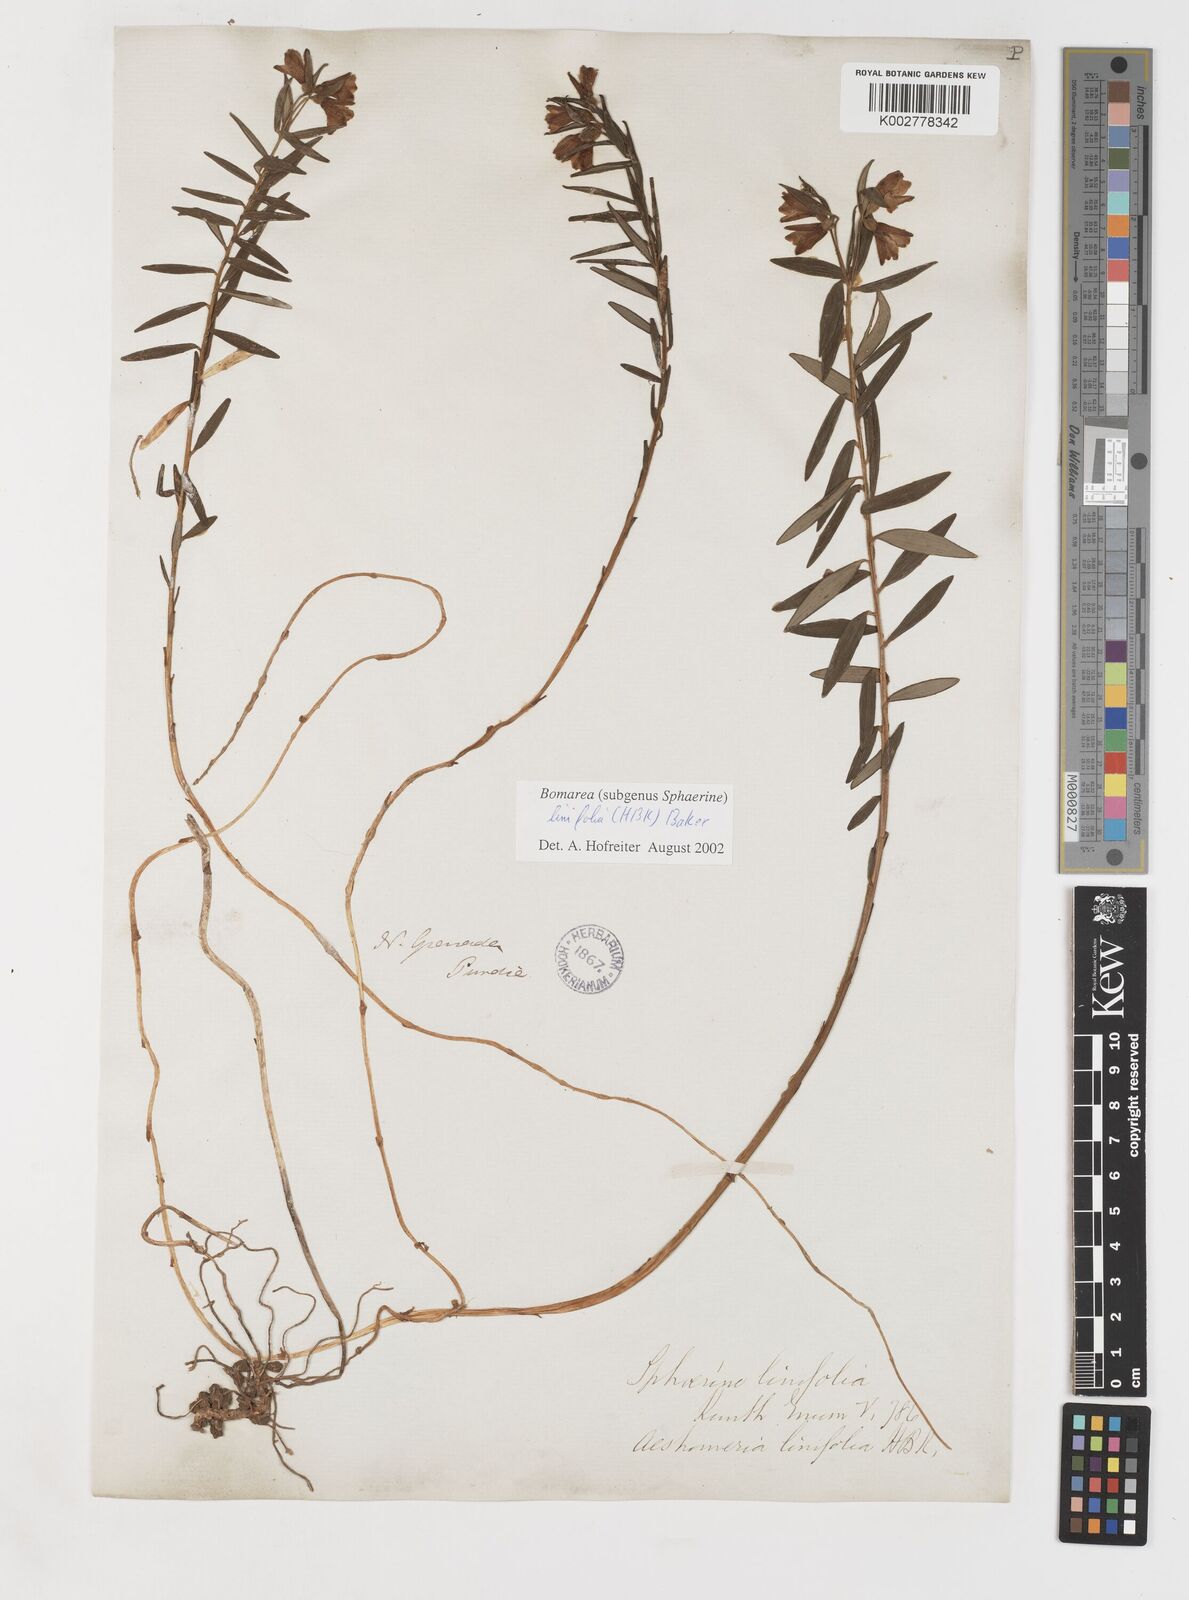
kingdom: Plantae
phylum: Tracheophyta
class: Liliopsida
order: Liliales
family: Alstroemeriaceae
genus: Bomarea
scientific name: Bomarea linifolia
